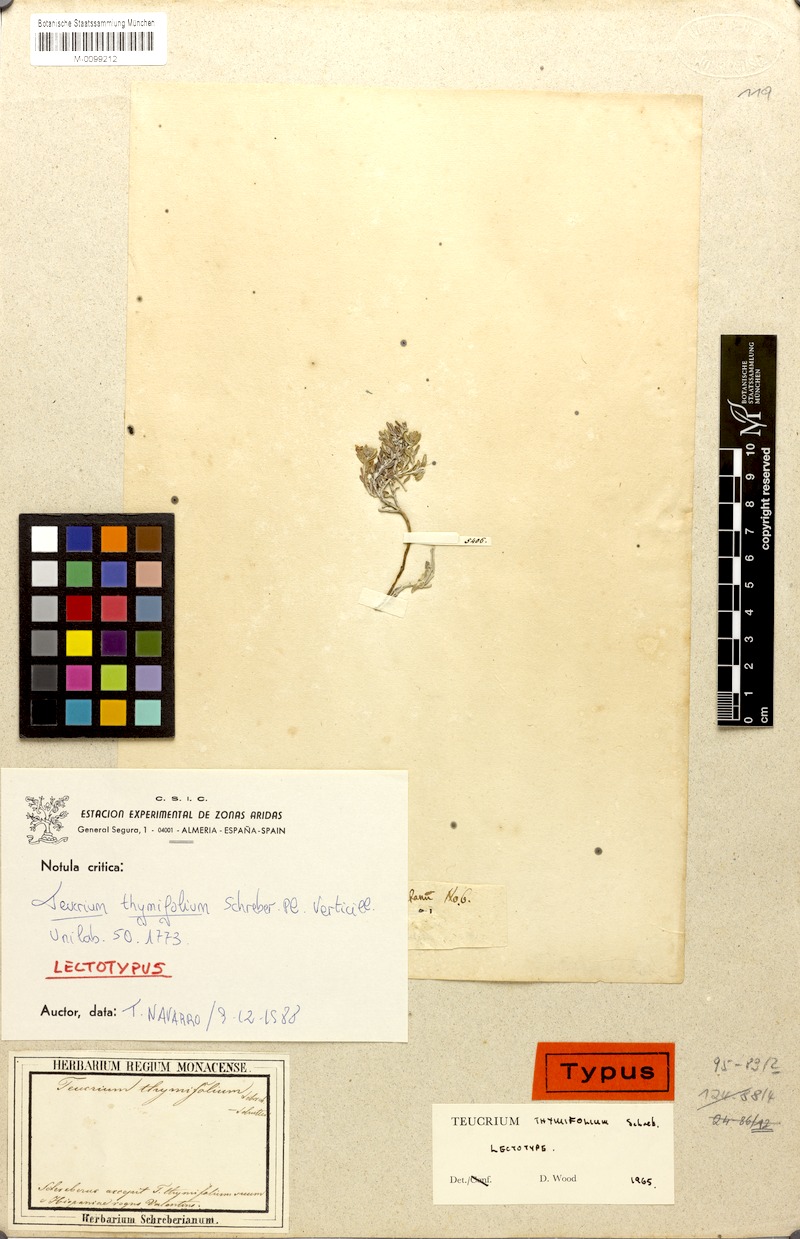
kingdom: Plantae
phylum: Tracheophyta
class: Magnoliopsida
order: Lamiales
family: Lamiaceae
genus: Teucrium
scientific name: Teucrium thymifolium
